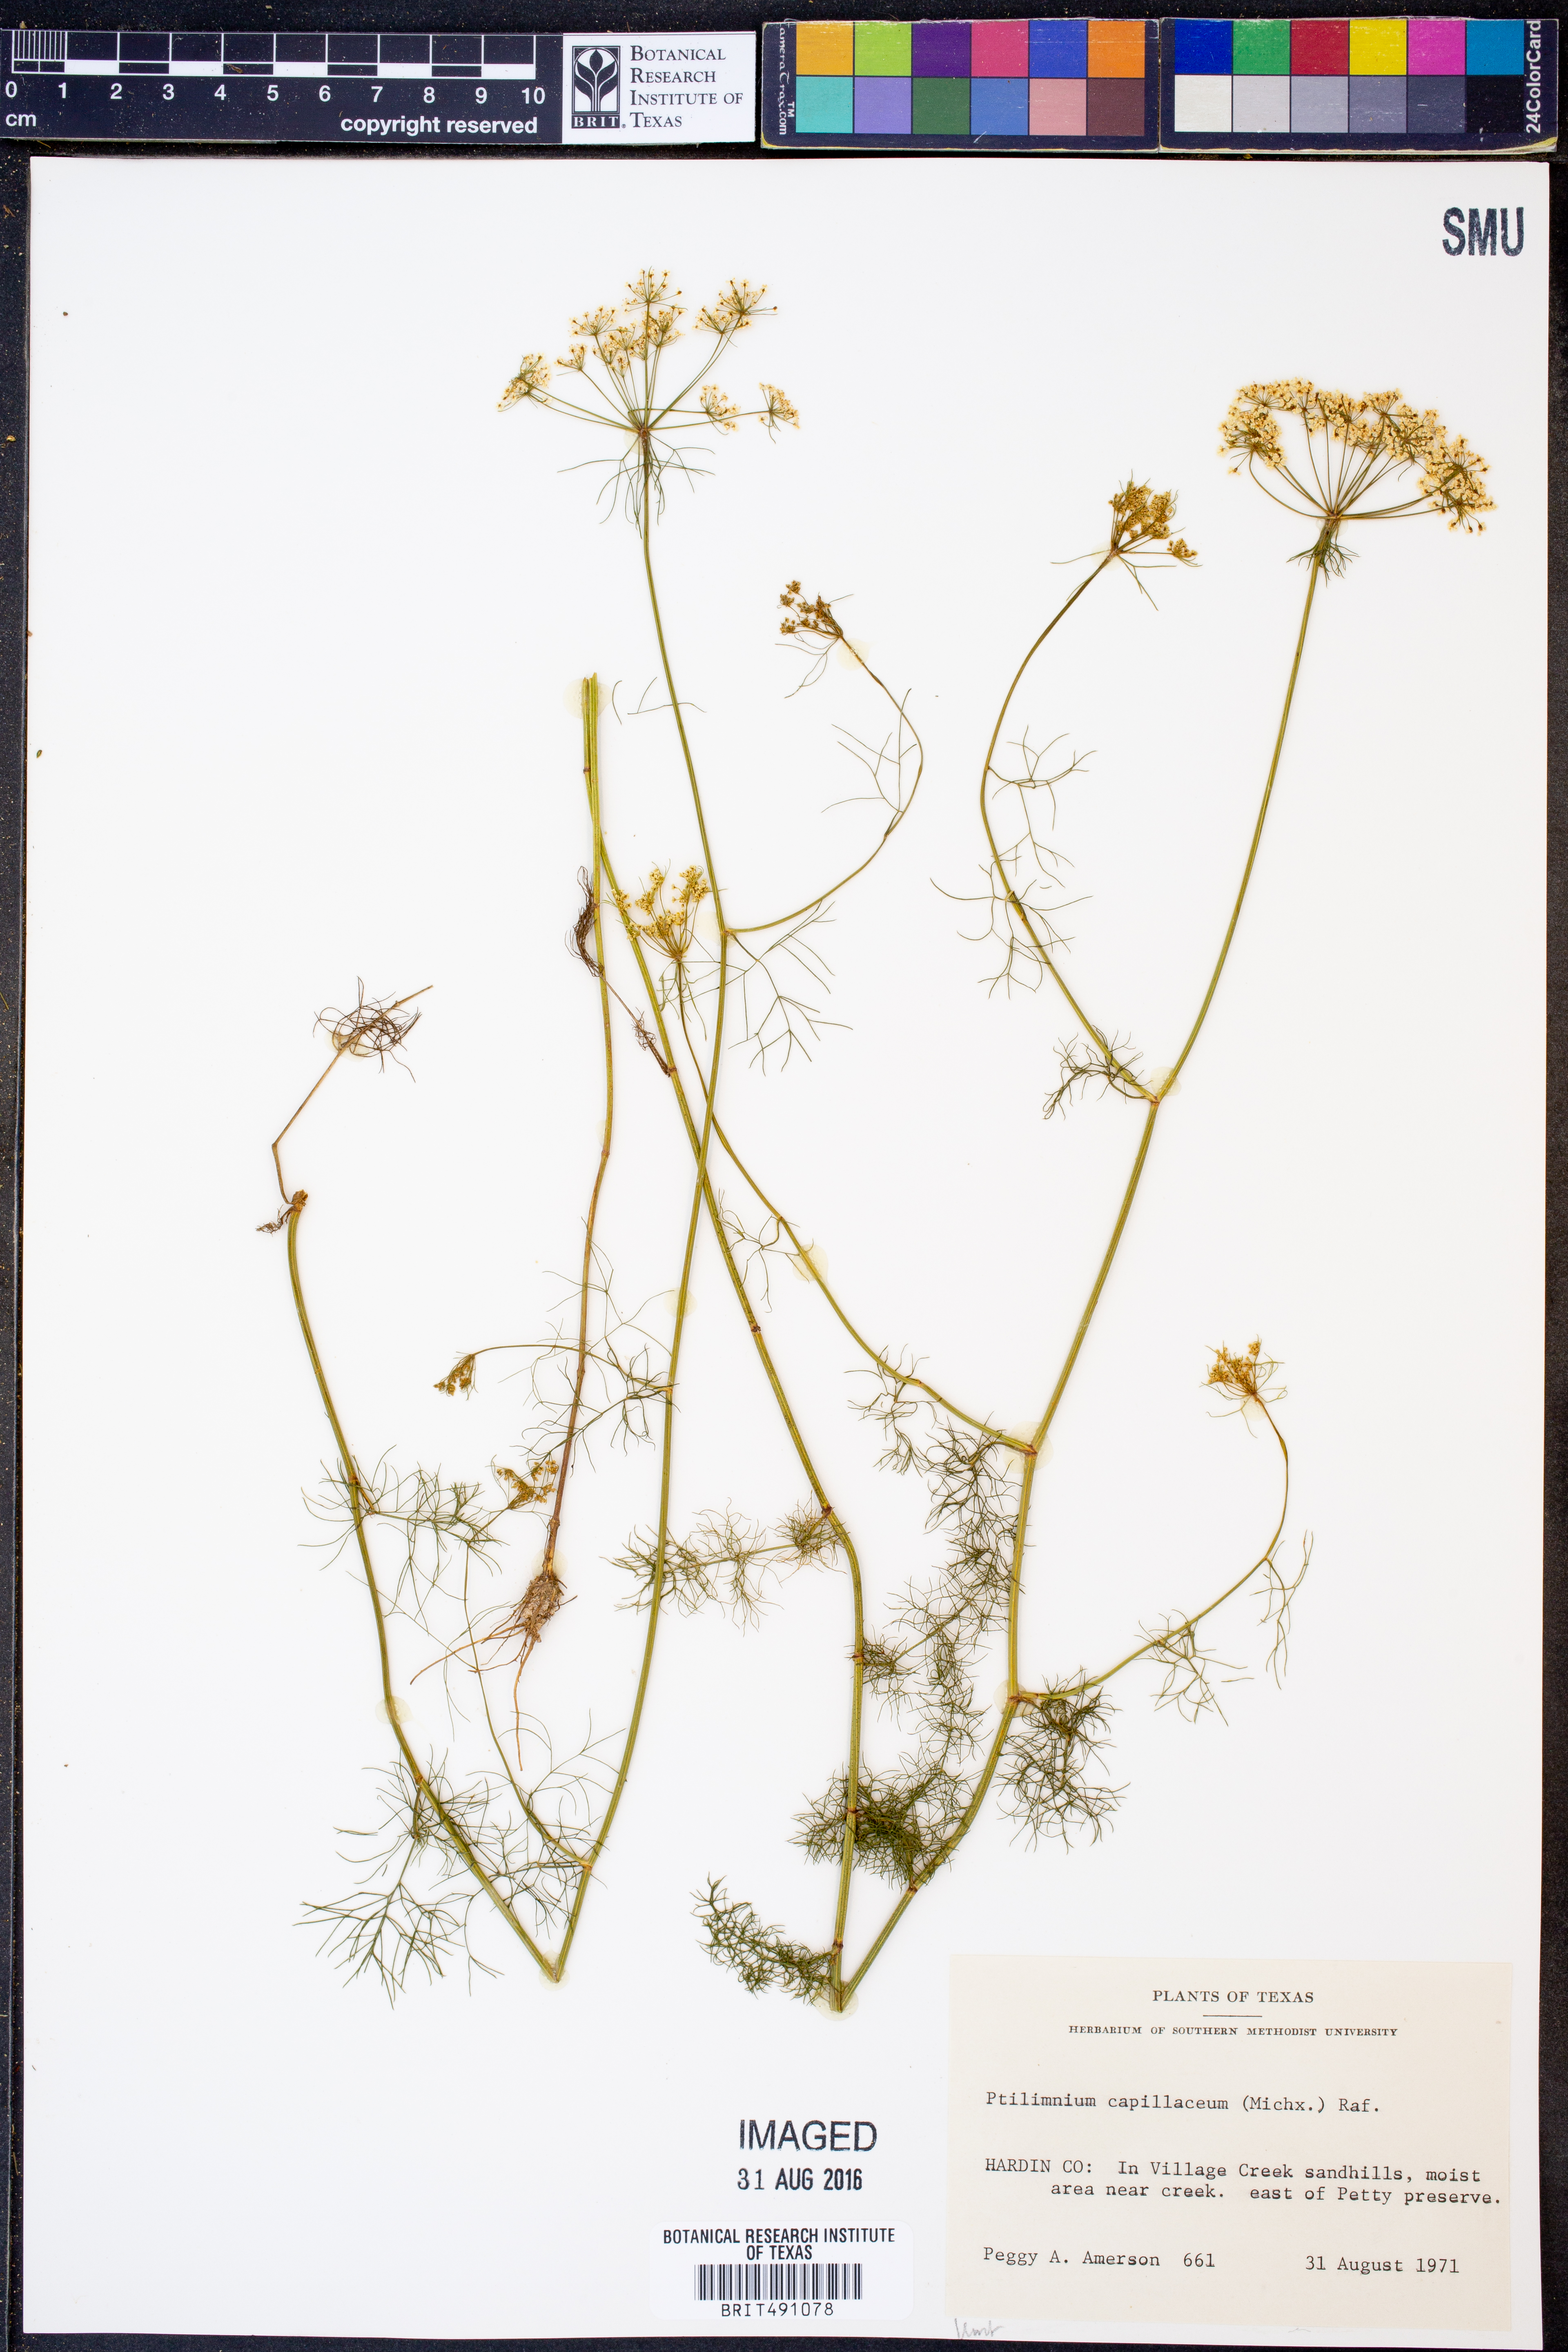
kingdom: Plantae
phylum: Tracheophyta
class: Magnoliopsida
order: Apiales
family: Apiaceae
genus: Ptilimnium
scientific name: Ptilimnium capillaceum
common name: Herbwilliam
